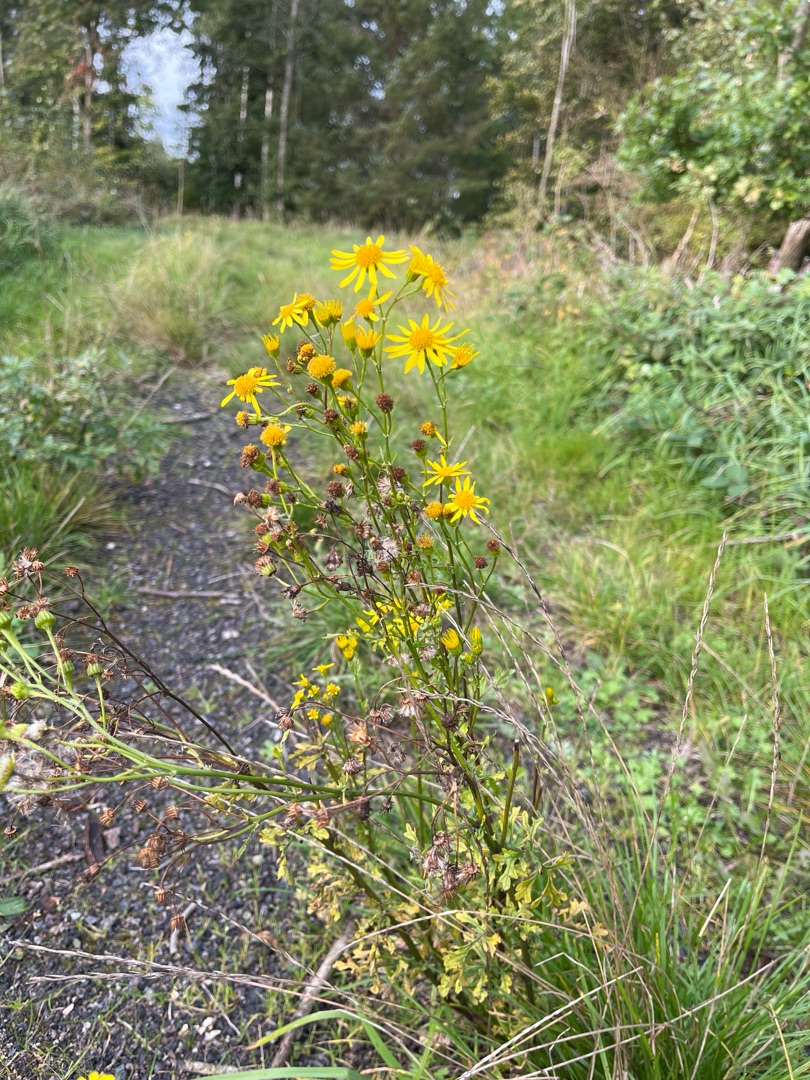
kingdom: Plantae
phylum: Tracheophyta
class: Magnoliopsida
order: Asterales
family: Asteraceae
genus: Jacobaea
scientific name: Jacobaea vulgaris
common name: Eng-brandbæger
